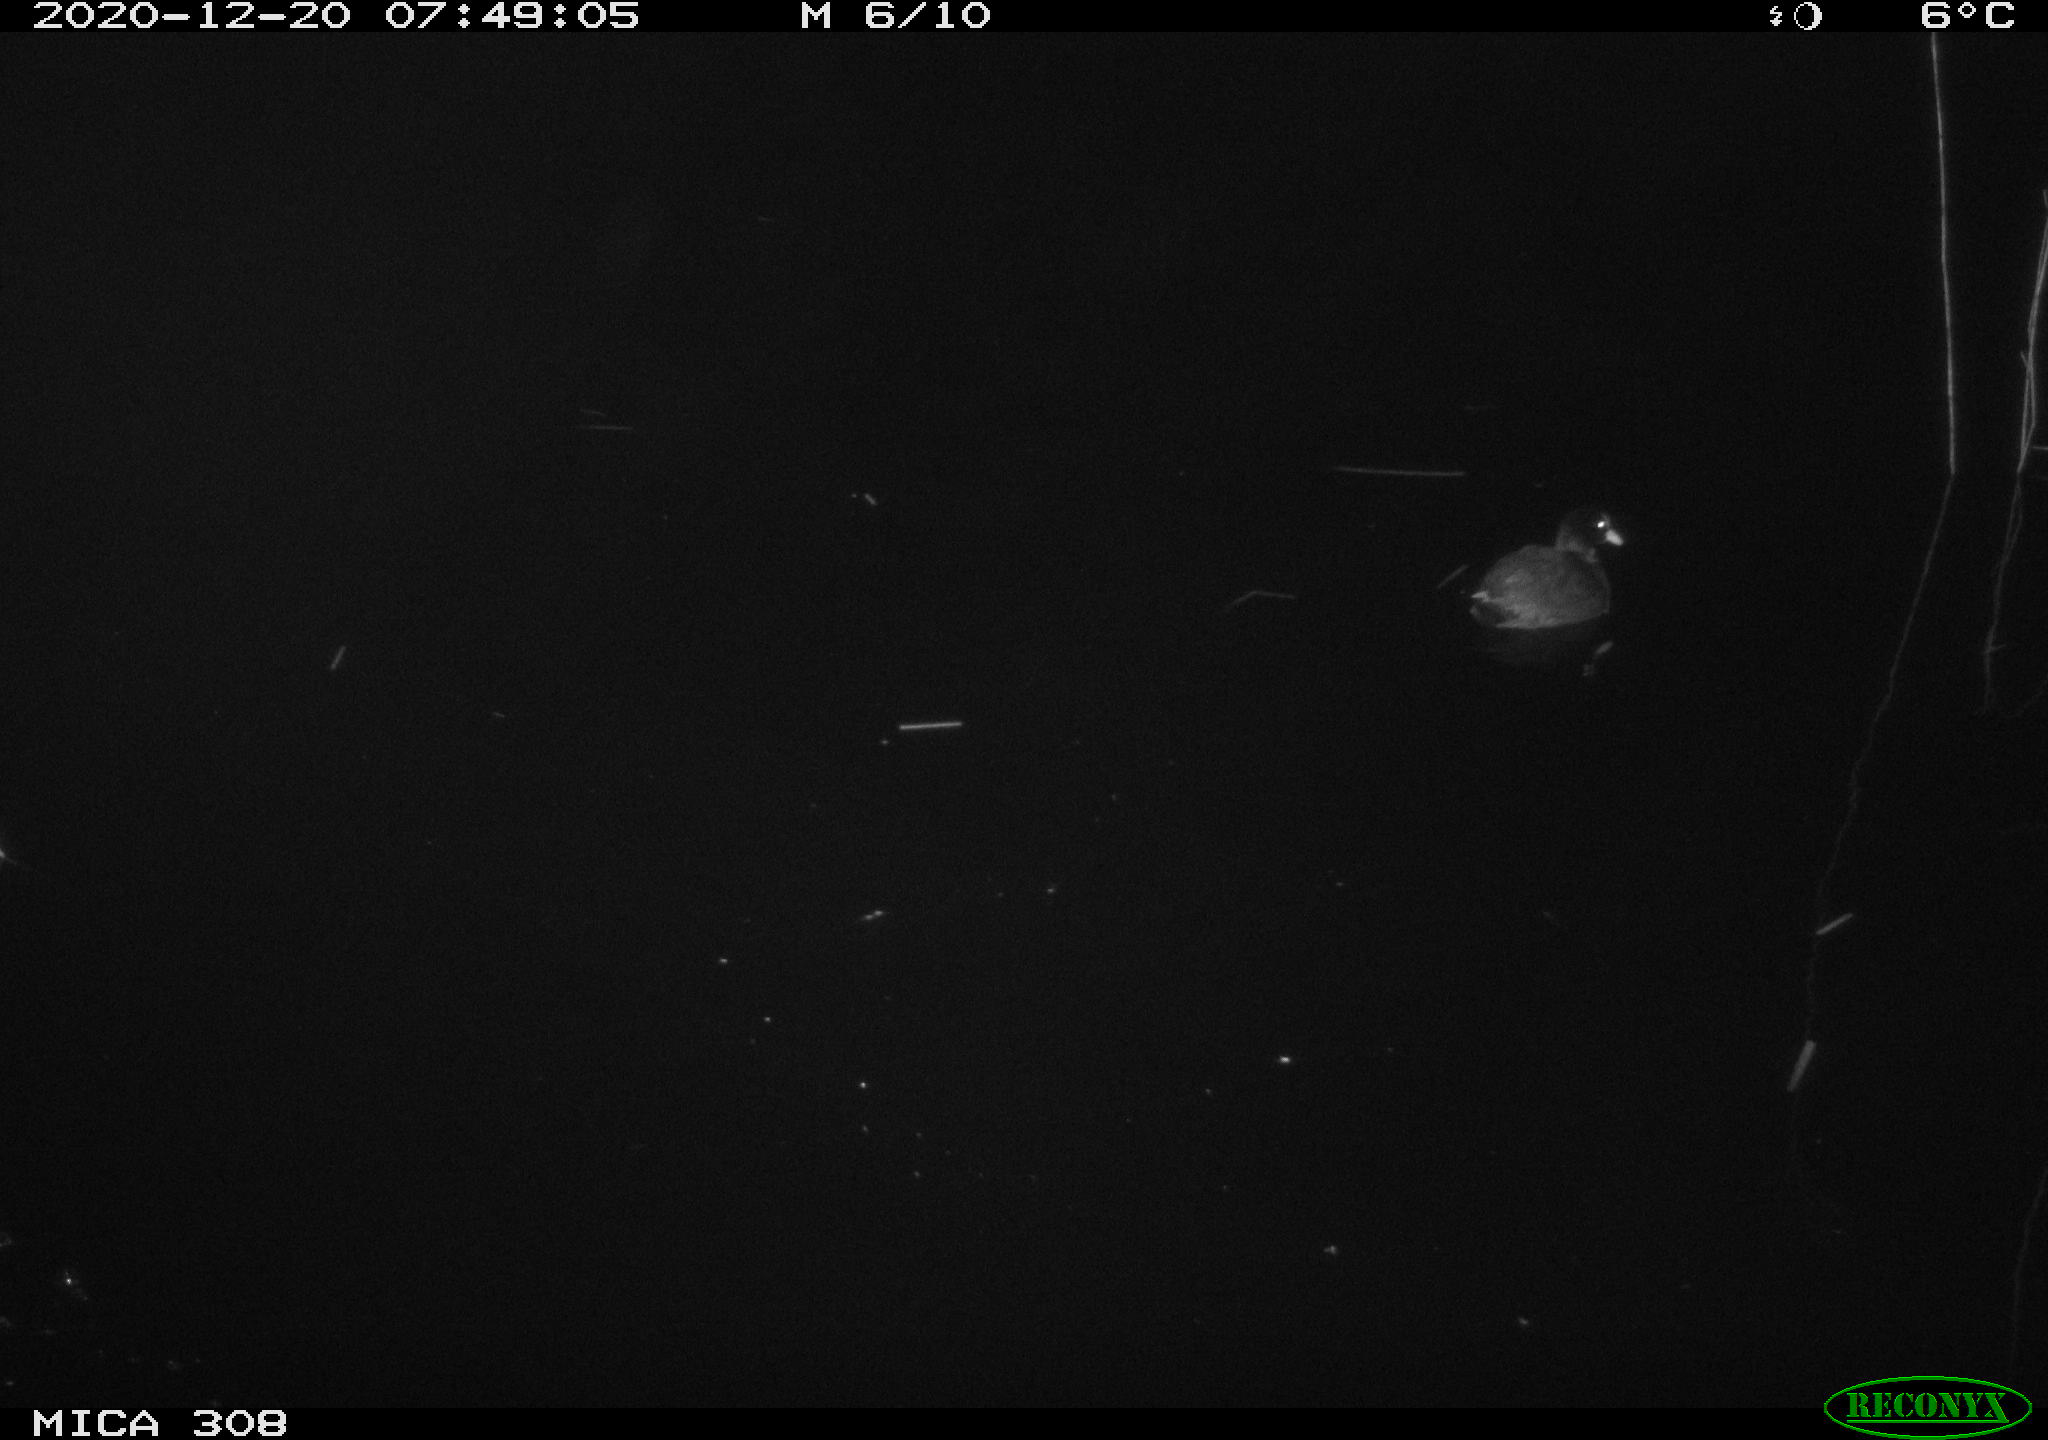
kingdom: Animalia
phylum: Chordata
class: Aves
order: Gruiformes
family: Rallidae
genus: Fulica
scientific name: Fulica atra
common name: Eurasian coot
